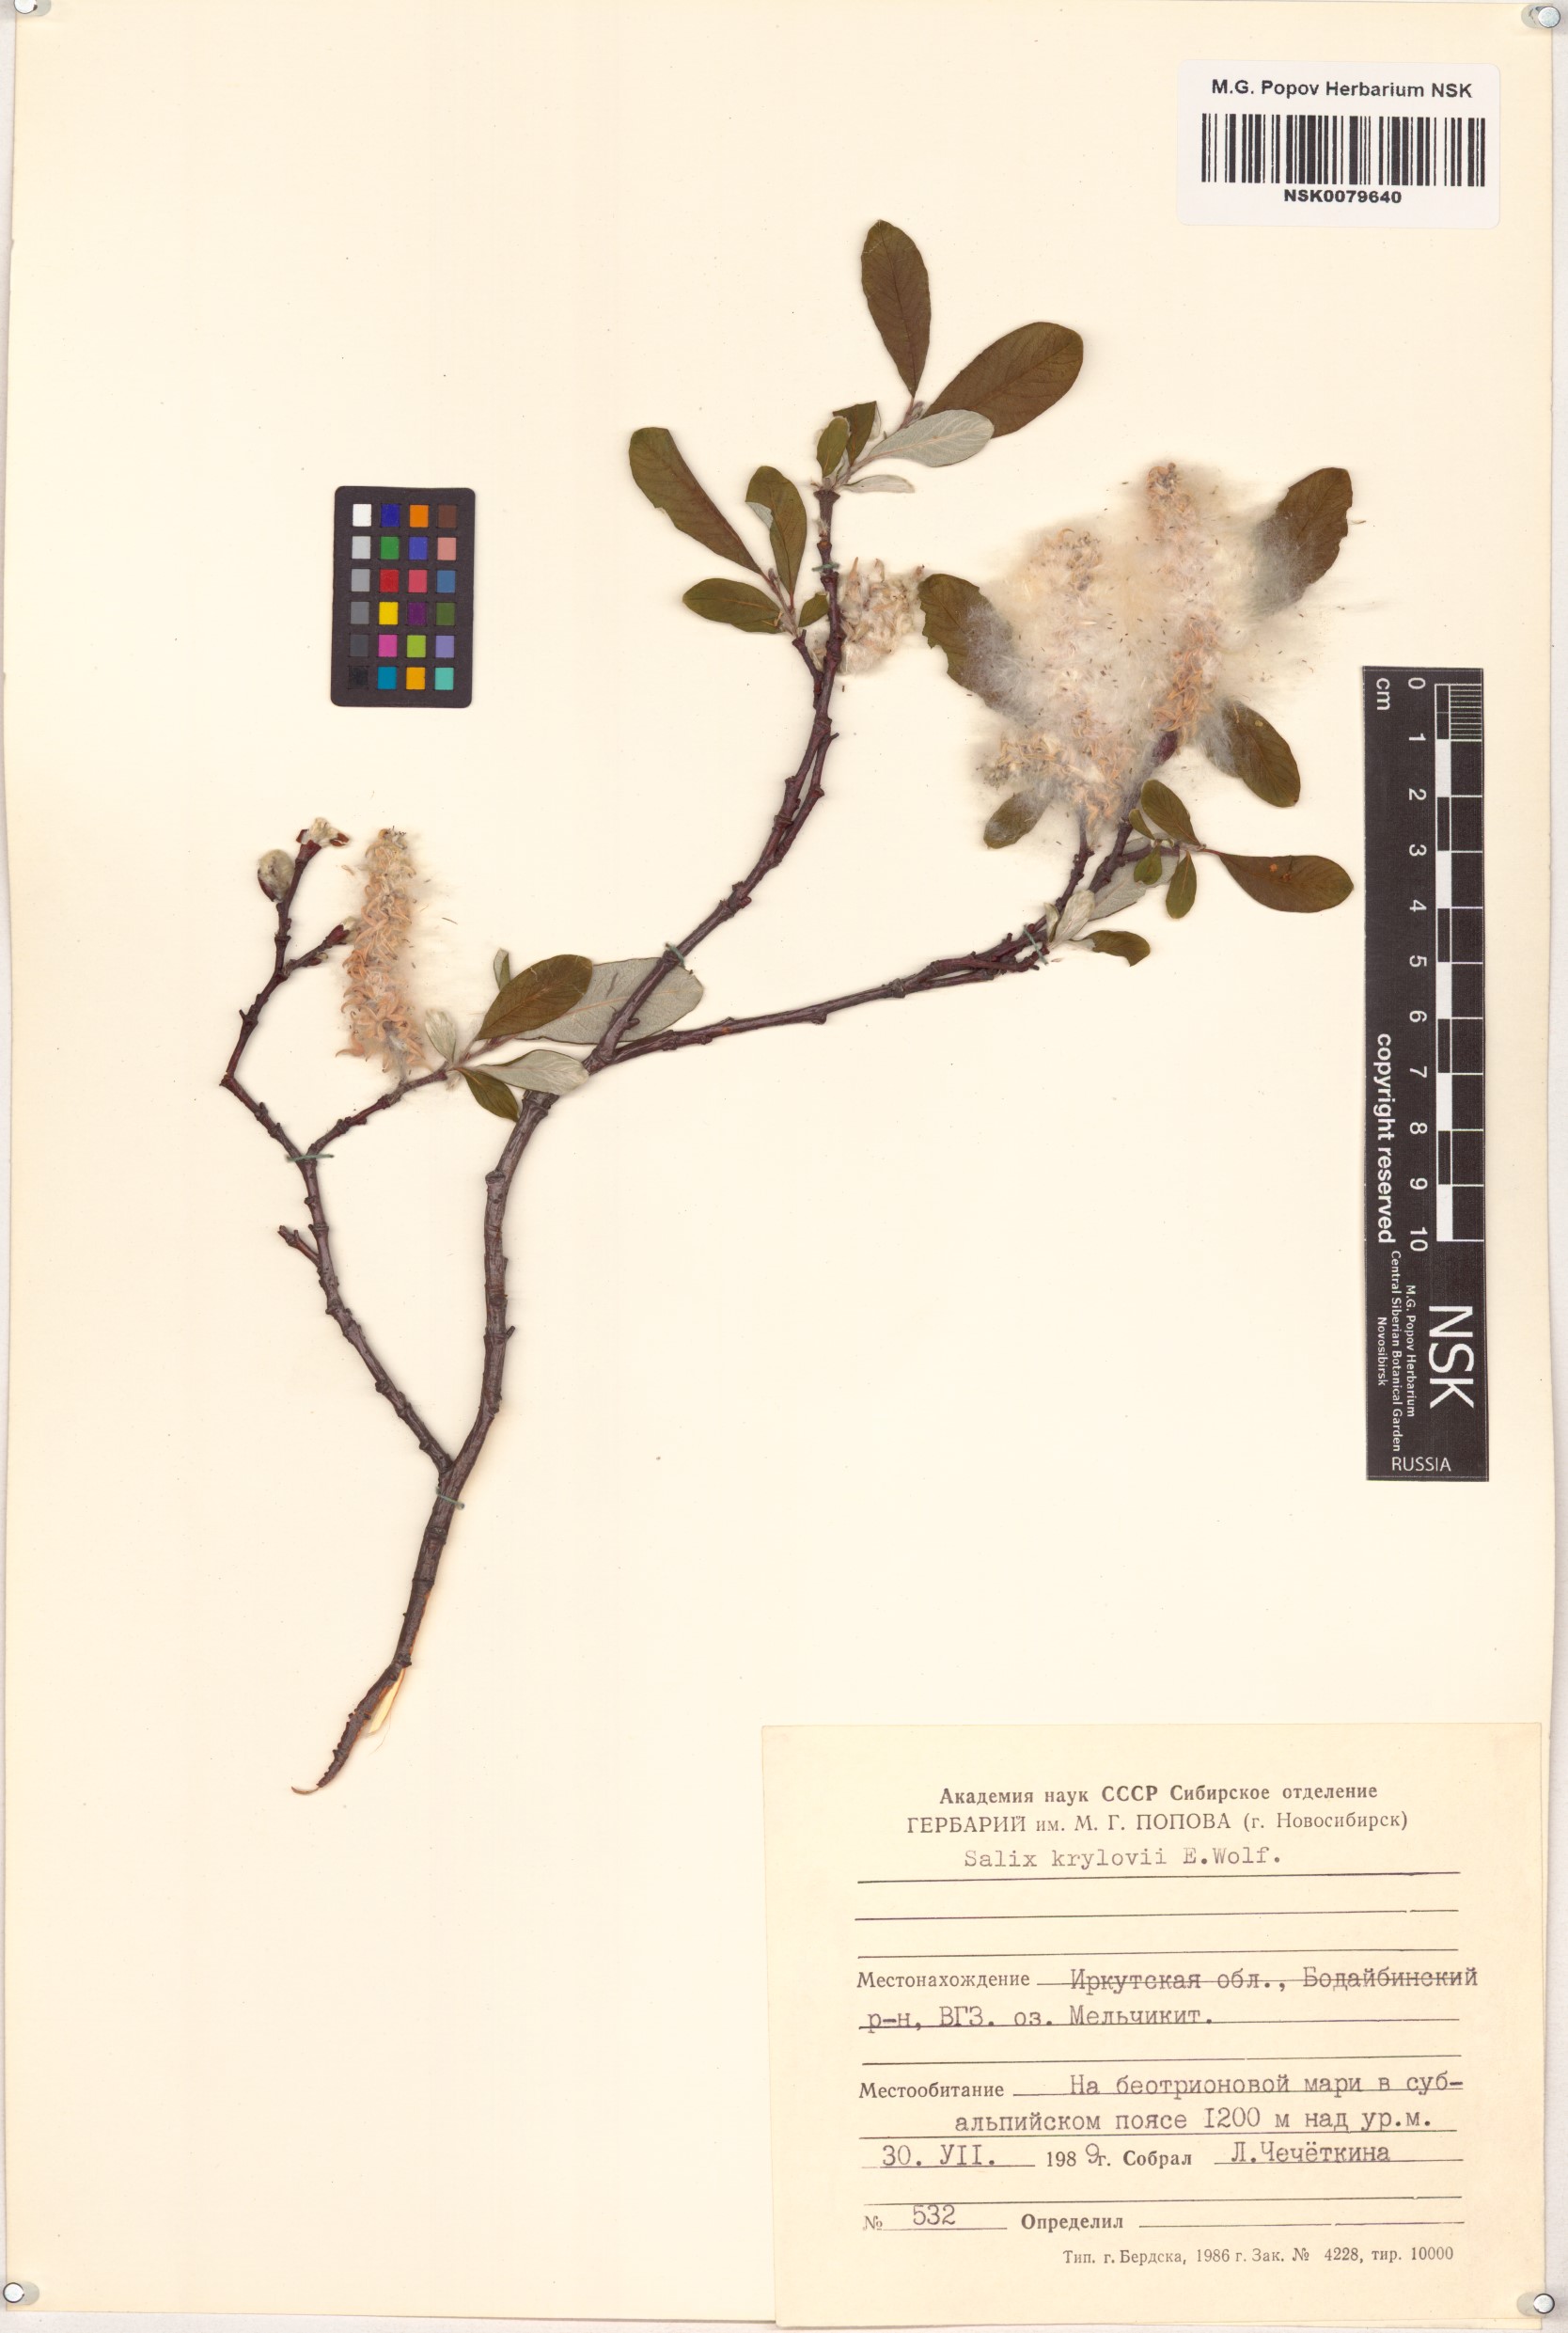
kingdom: Plantae
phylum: Tracheophyta
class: Magnoliopsida
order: Malpighiales
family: Salicaceae
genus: Salix
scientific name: Salix krylovii
